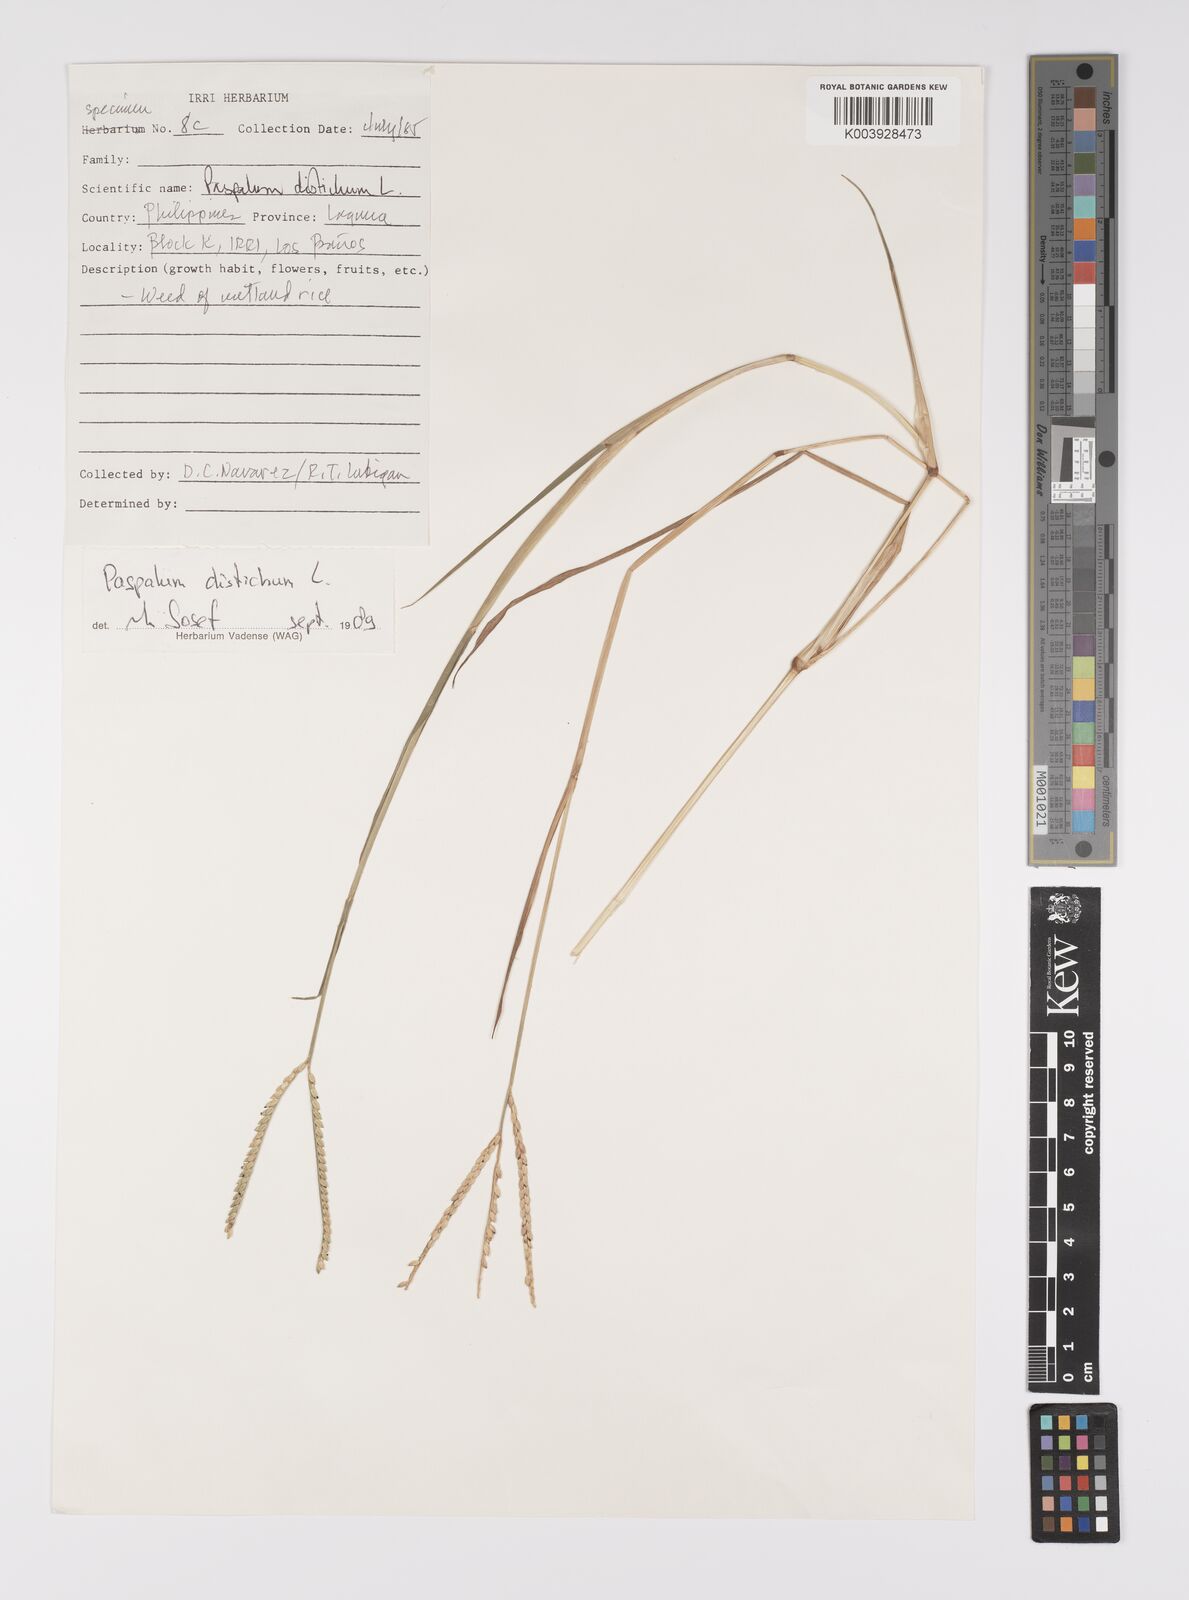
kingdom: Plantae
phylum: Tracheophyta
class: Liliopsida
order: Poales
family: Poaceae
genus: Paspalum
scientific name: Paspalum distichum
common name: Knotgrass
